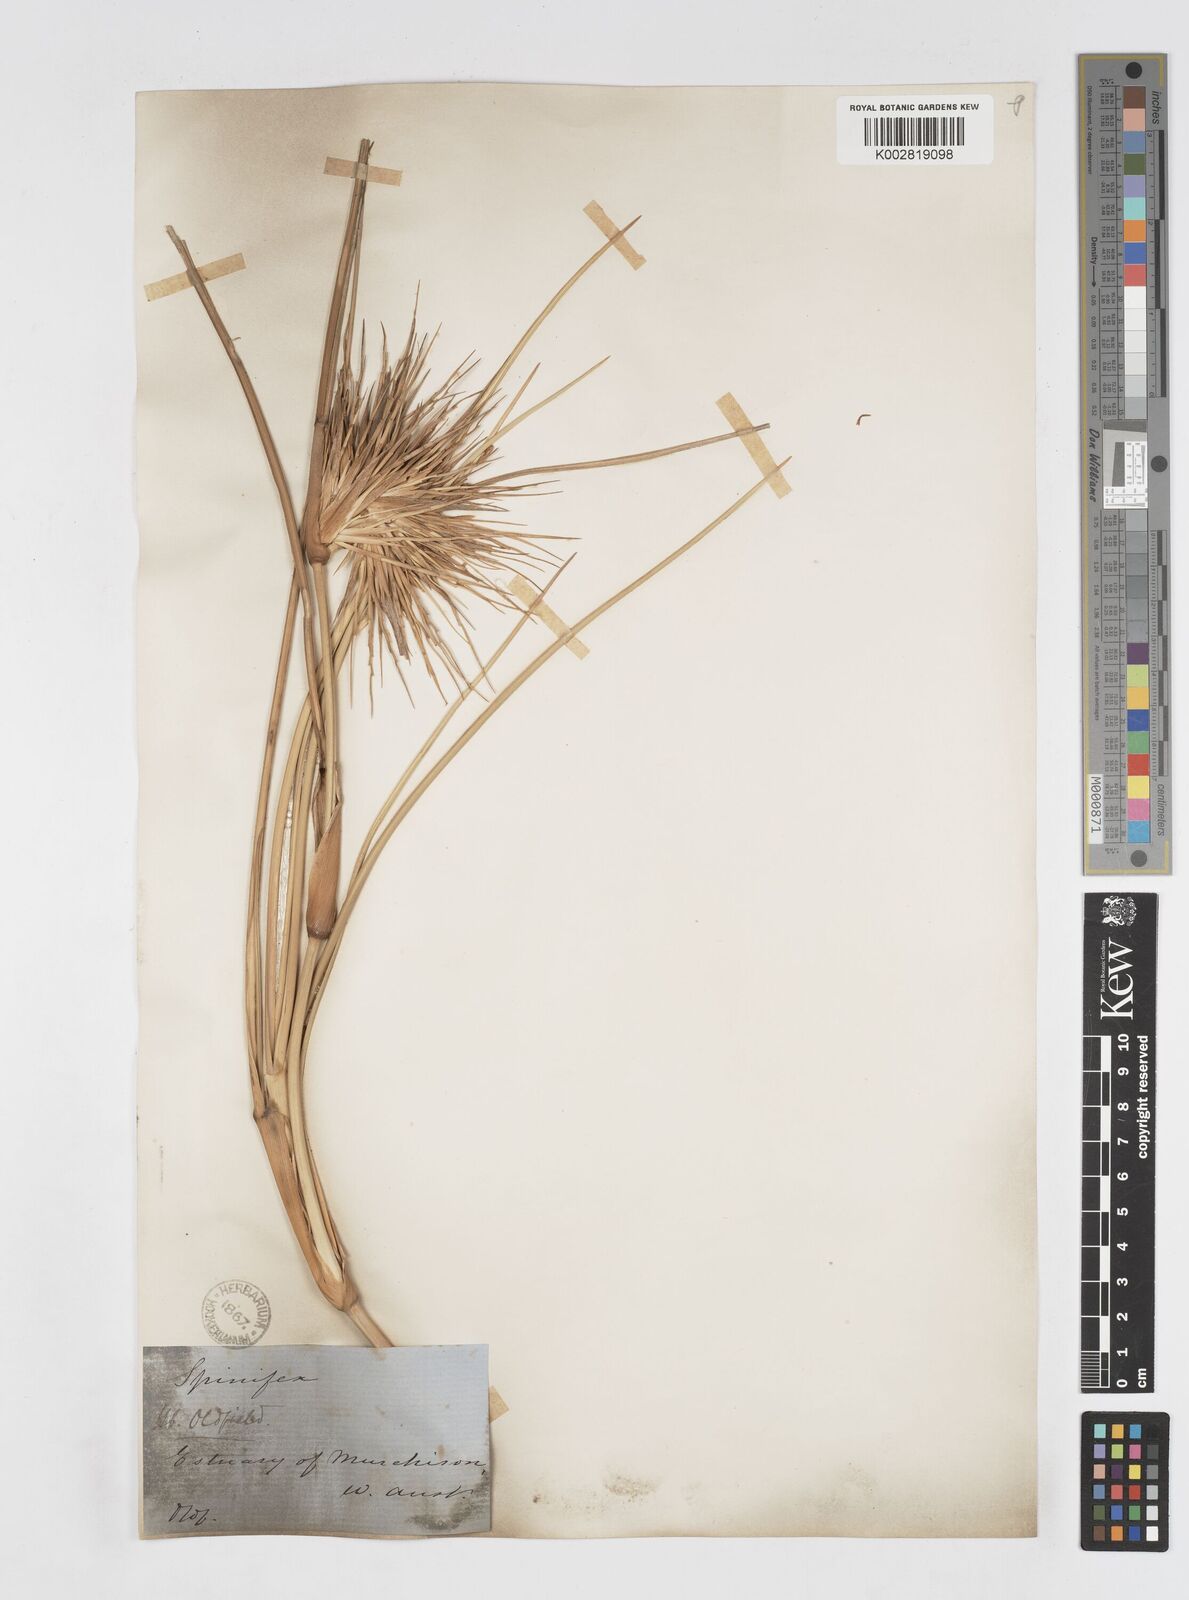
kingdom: Plantae
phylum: Tracheophyta
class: Liliopsida
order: Poales
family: Poaceae
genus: Spinifex
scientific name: Spinifex longifolius
